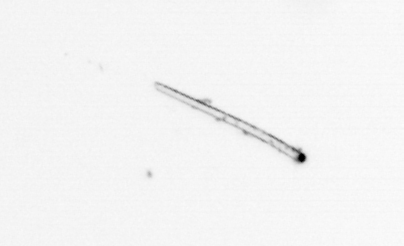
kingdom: Chromista
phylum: Ochrophyta
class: Bacillariophyceae
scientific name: Bacillariophyceae
